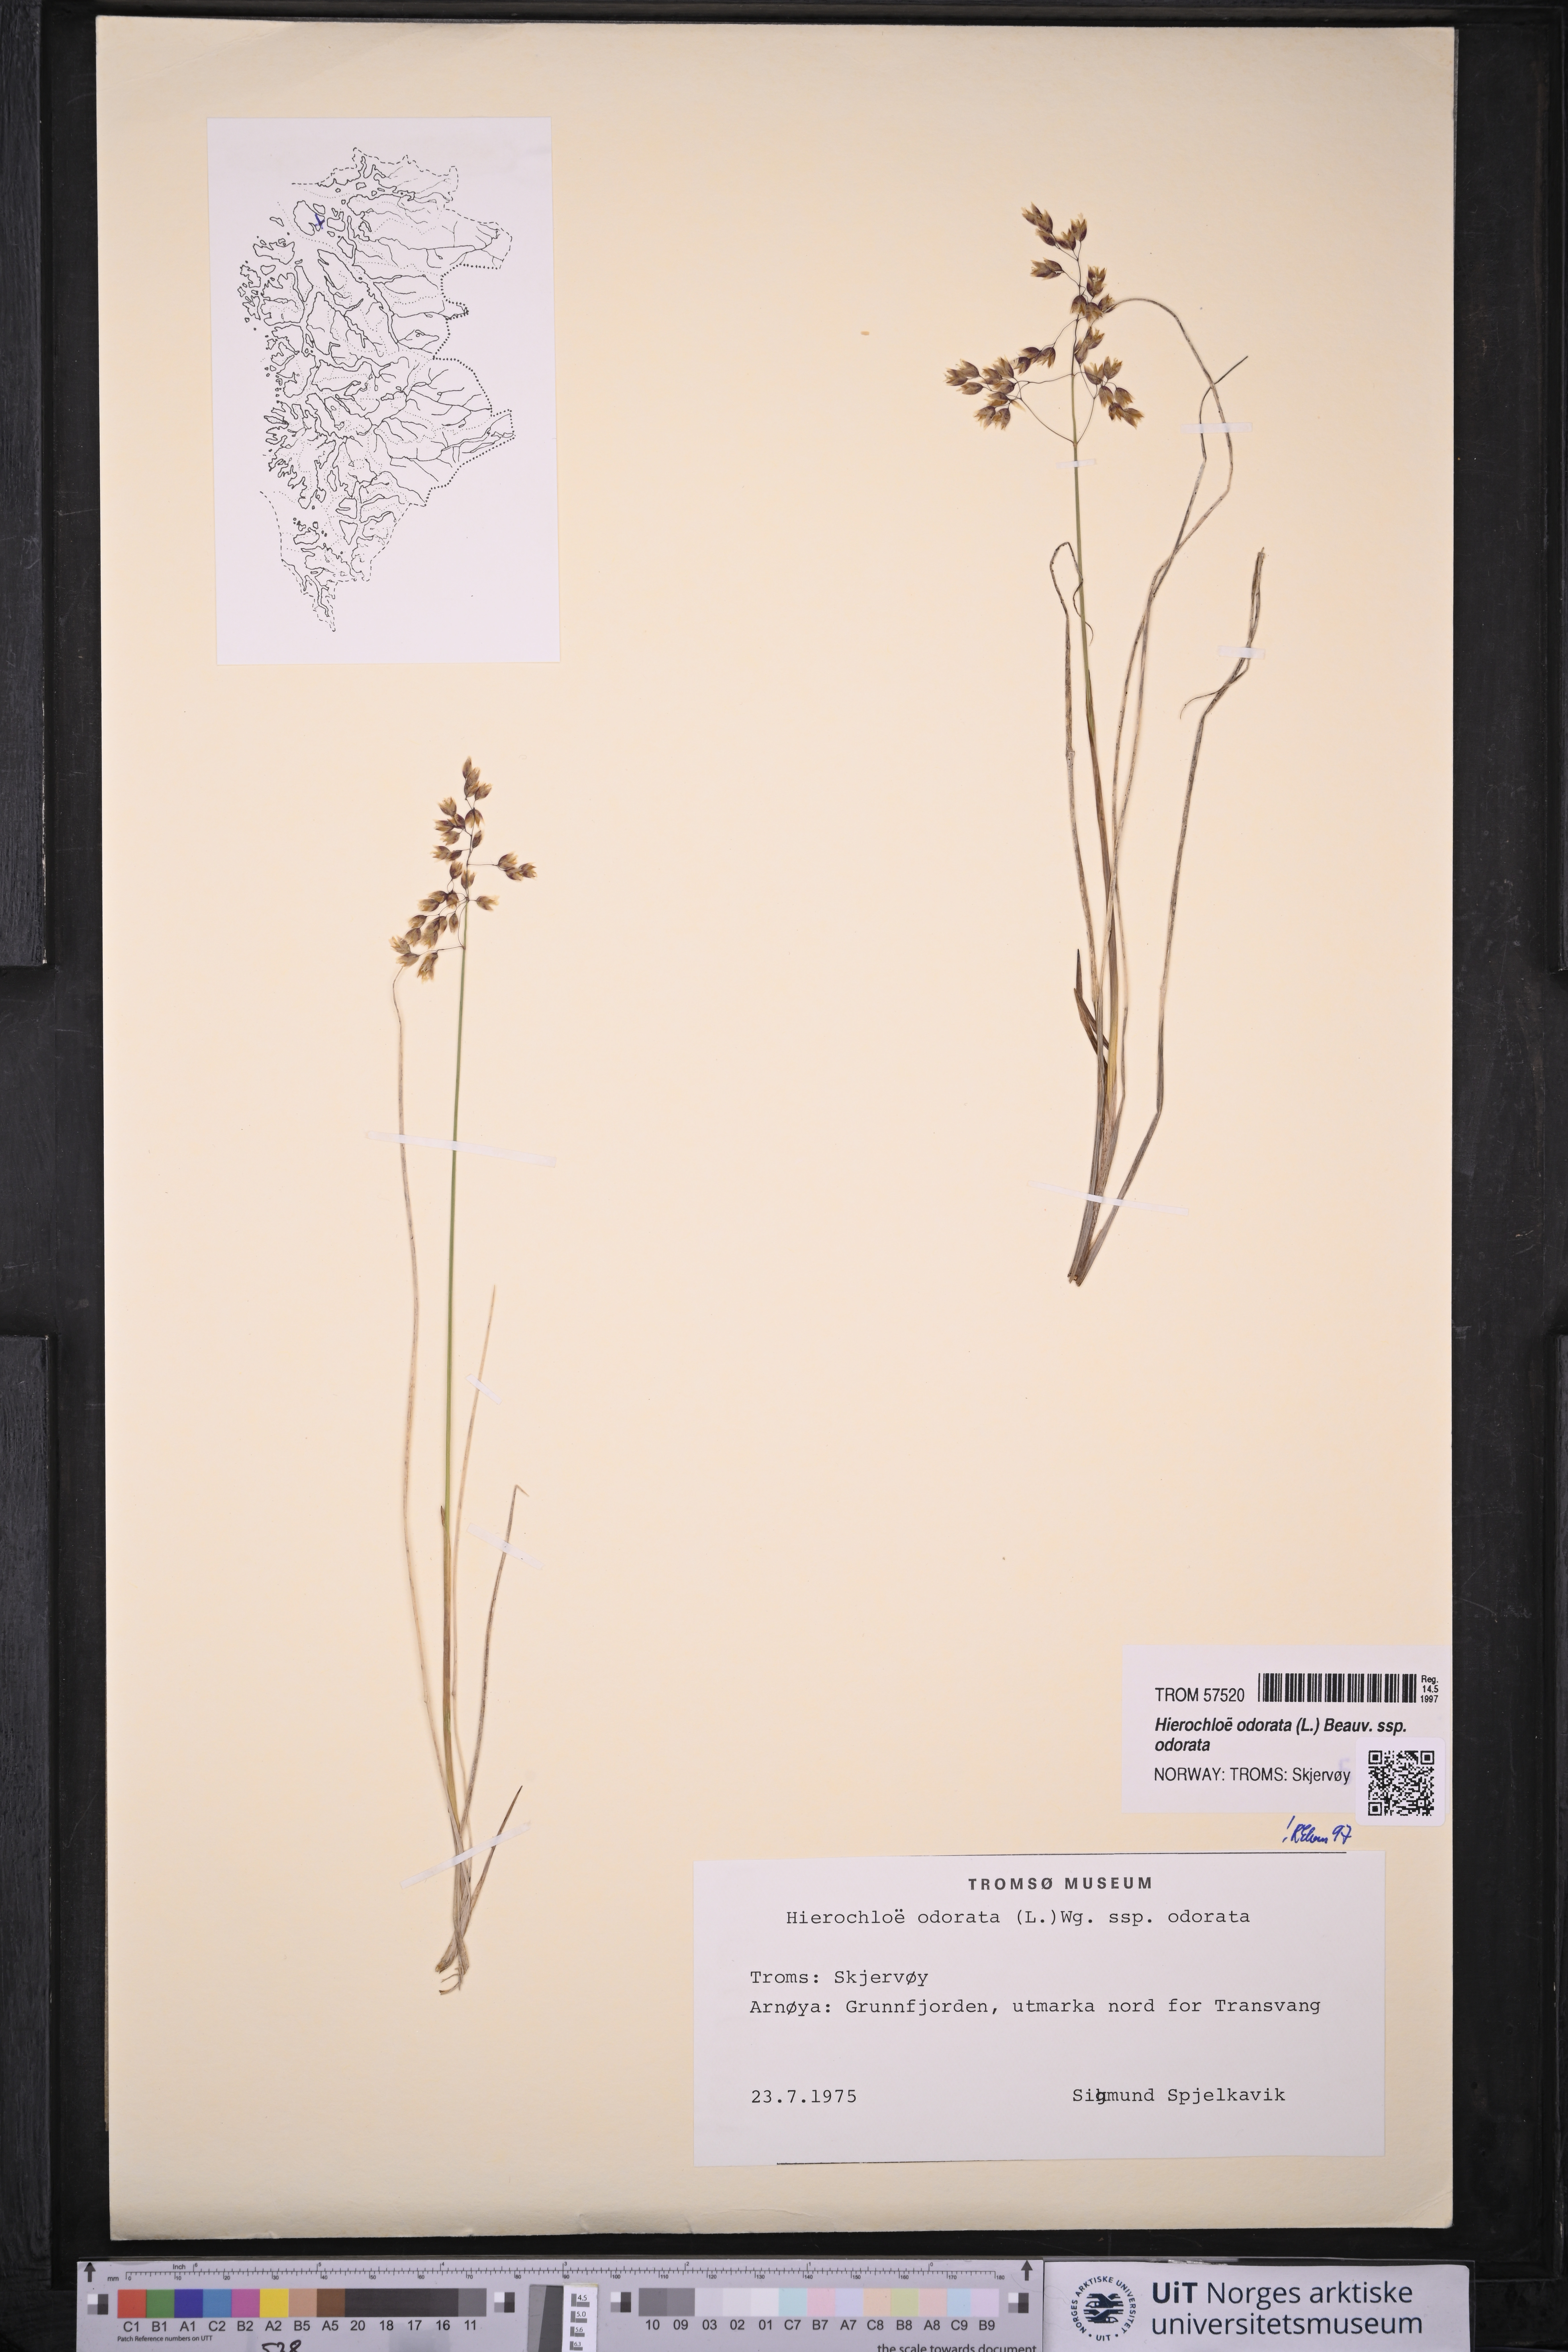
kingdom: Plantae
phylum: Tracheophyta
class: Liliopsida
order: Poales
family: Poaceae
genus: Anthoxanthum
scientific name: Anthoxanthum nitens
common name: Holy grass
